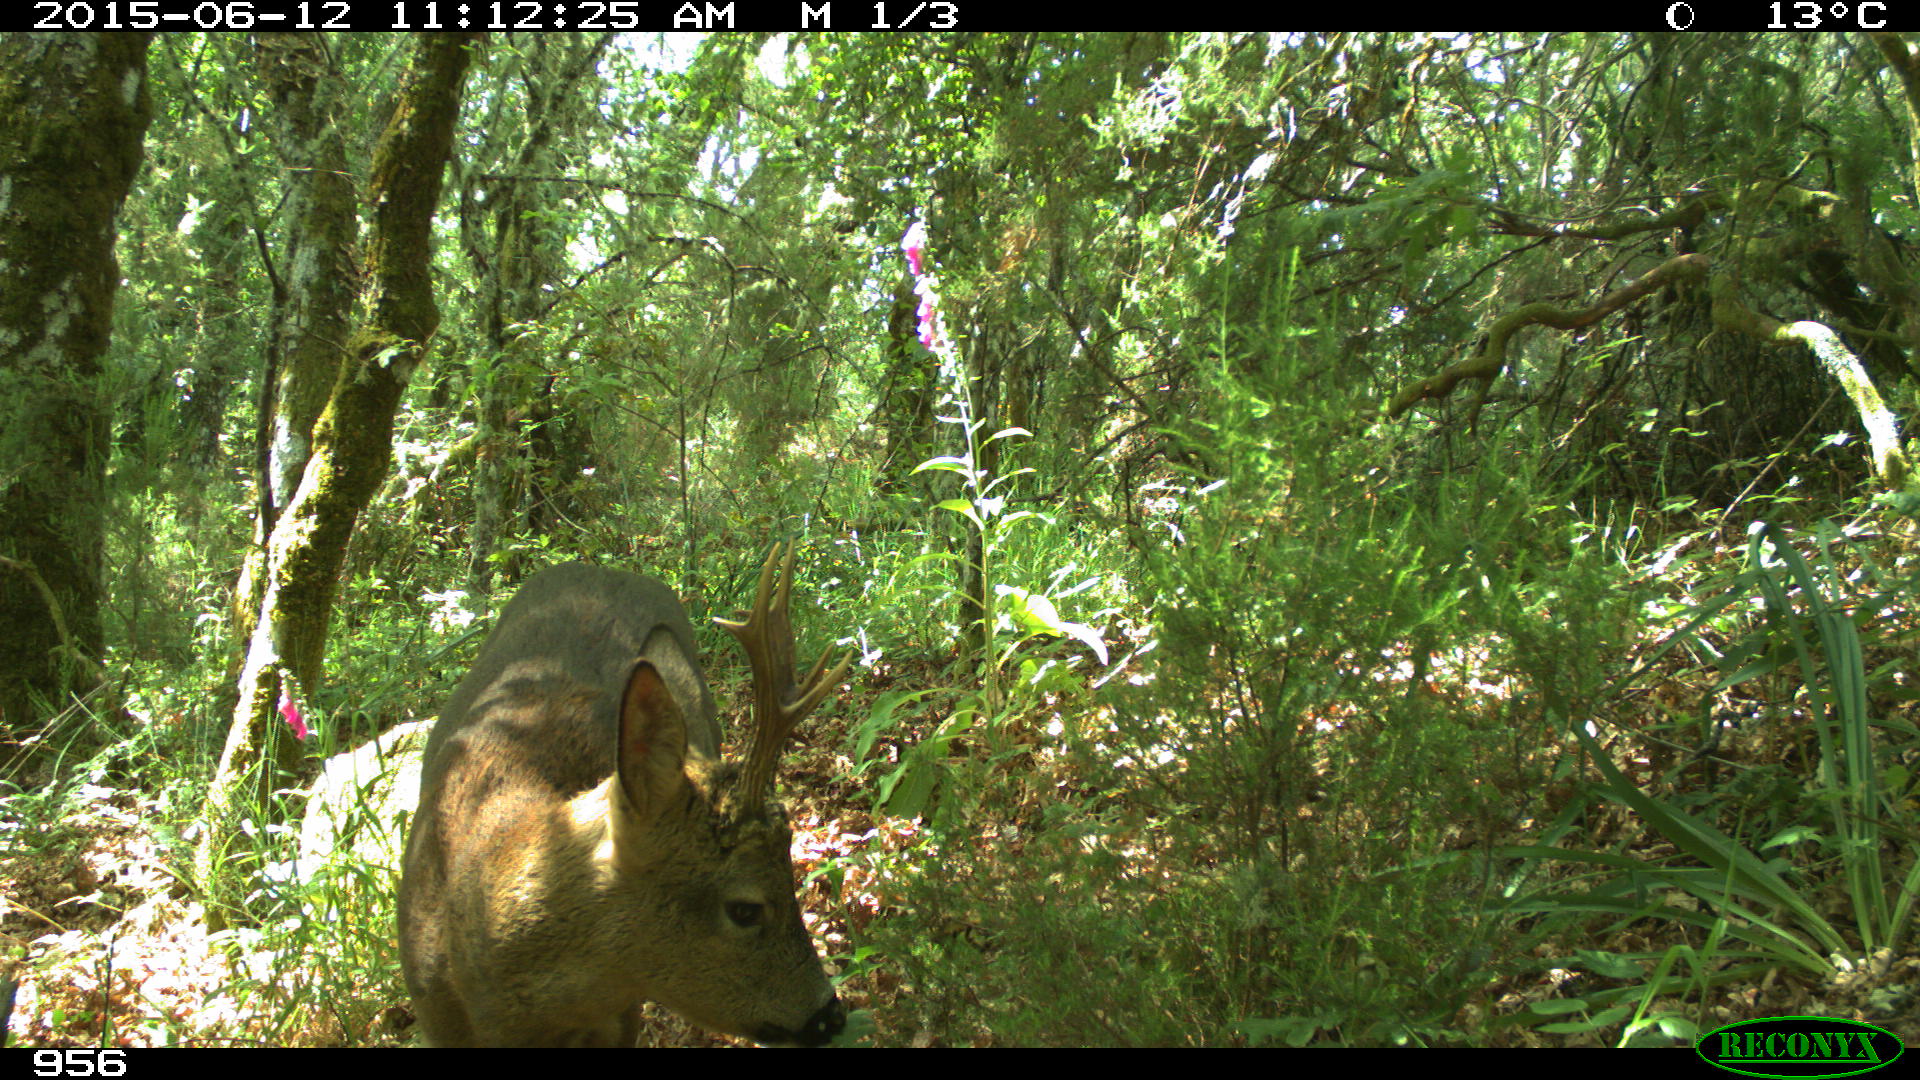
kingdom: Animalia
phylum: Chordata
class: Mammalia
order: Artiodactyla
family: Cervidae
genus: Capreolus
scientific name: Capreolus capreolus
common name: Western roe deer
